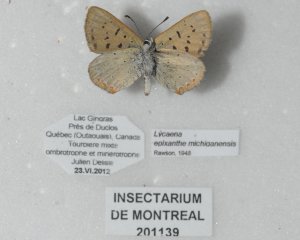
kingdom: Animalia
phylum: Arthropoda
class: Insecta
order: Lepidoptera
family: Sesiidae
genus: Sesia
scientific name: Sesia Lycaena epixanthe
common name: Bog Copper
